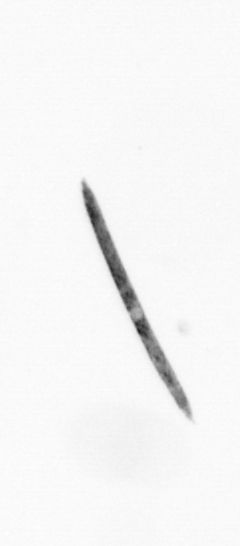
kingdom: Bacteria
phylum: Cyanobacteria
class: Cyanobacteriia
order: Cyanobacteriales
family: Microcoleaceae
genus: Trichodesmium
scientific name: Trichodesmium
